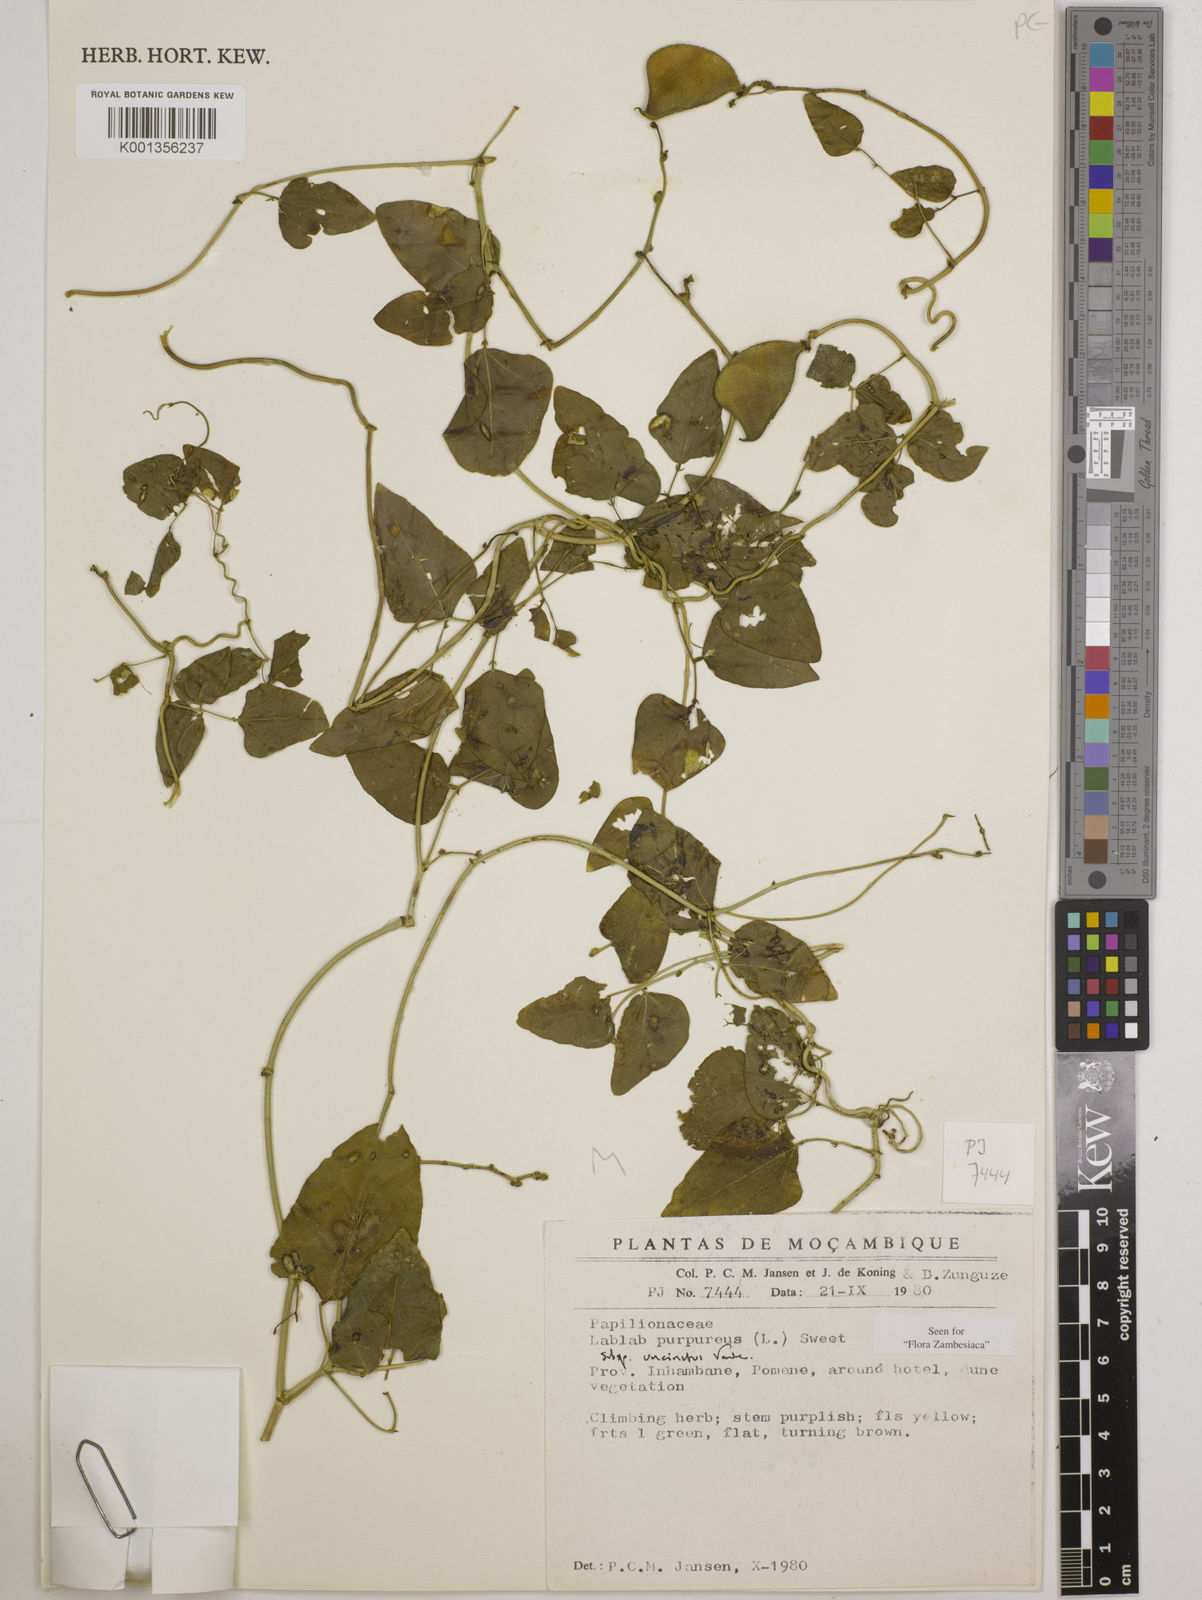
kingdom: Plantae
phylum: Tracheophyta
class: Magnoliopsida
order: Fabales
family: Fabaceae
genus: Lablab
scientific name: Lablab purpureus
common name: Lablab-bean
